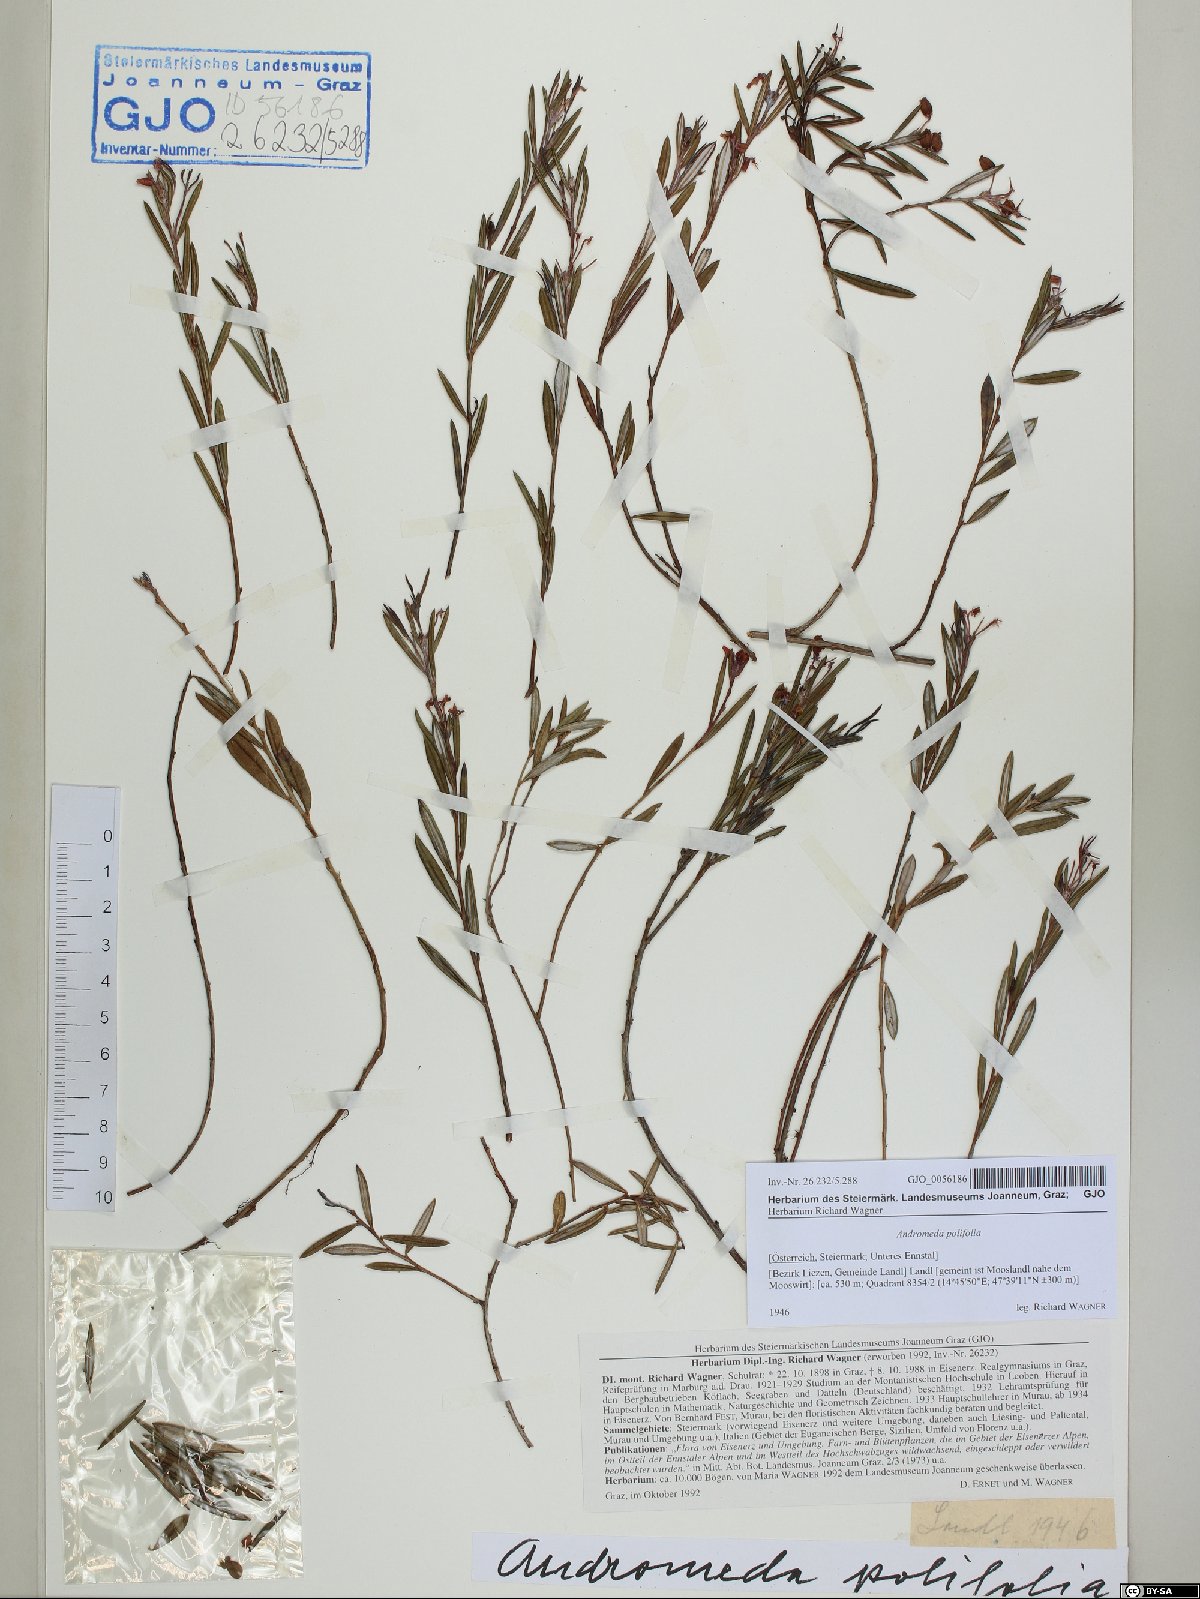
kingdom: Plantae
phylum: Tracheophyta
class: Magnoliopsida
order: Ericales
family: Ericaceae
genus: Andromeda
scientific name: Andromeda polifolia
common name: Bog-rosemary
